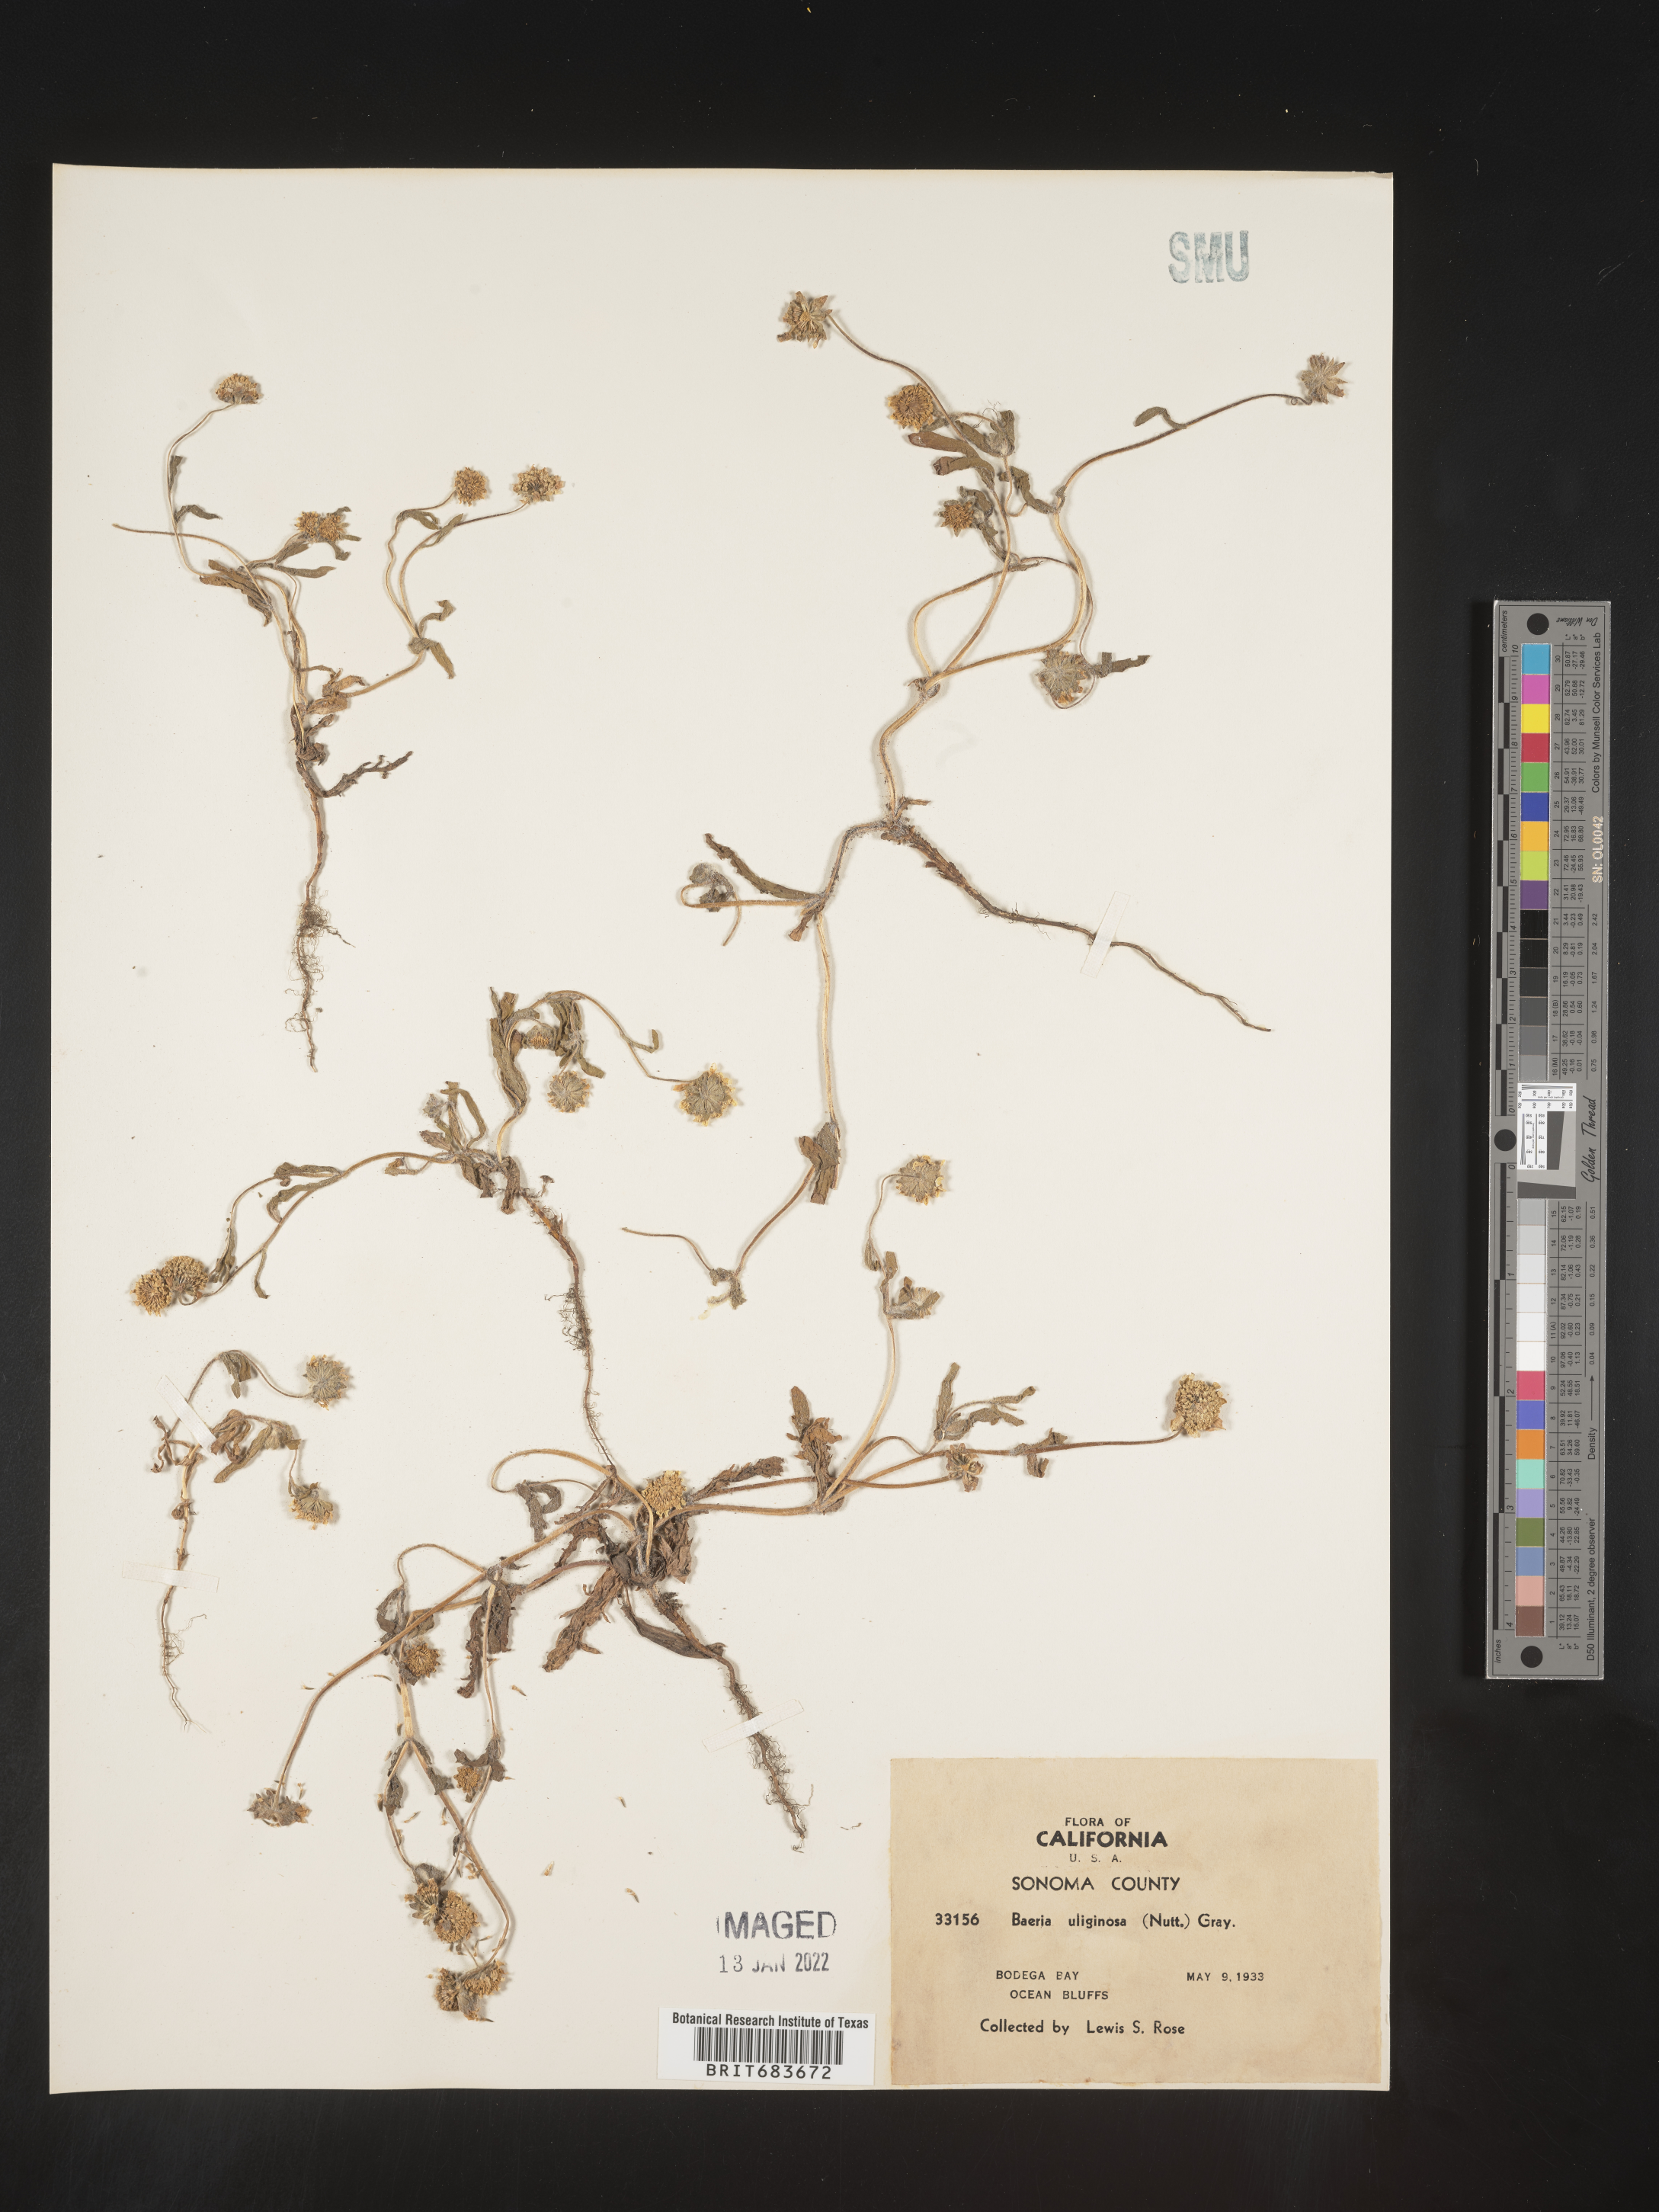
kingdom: Plantae
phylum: Tracheophyta
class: Magnoliopsida
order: Asterales
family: Asteraceae
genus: Lasthenia
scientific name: Lasthenia
